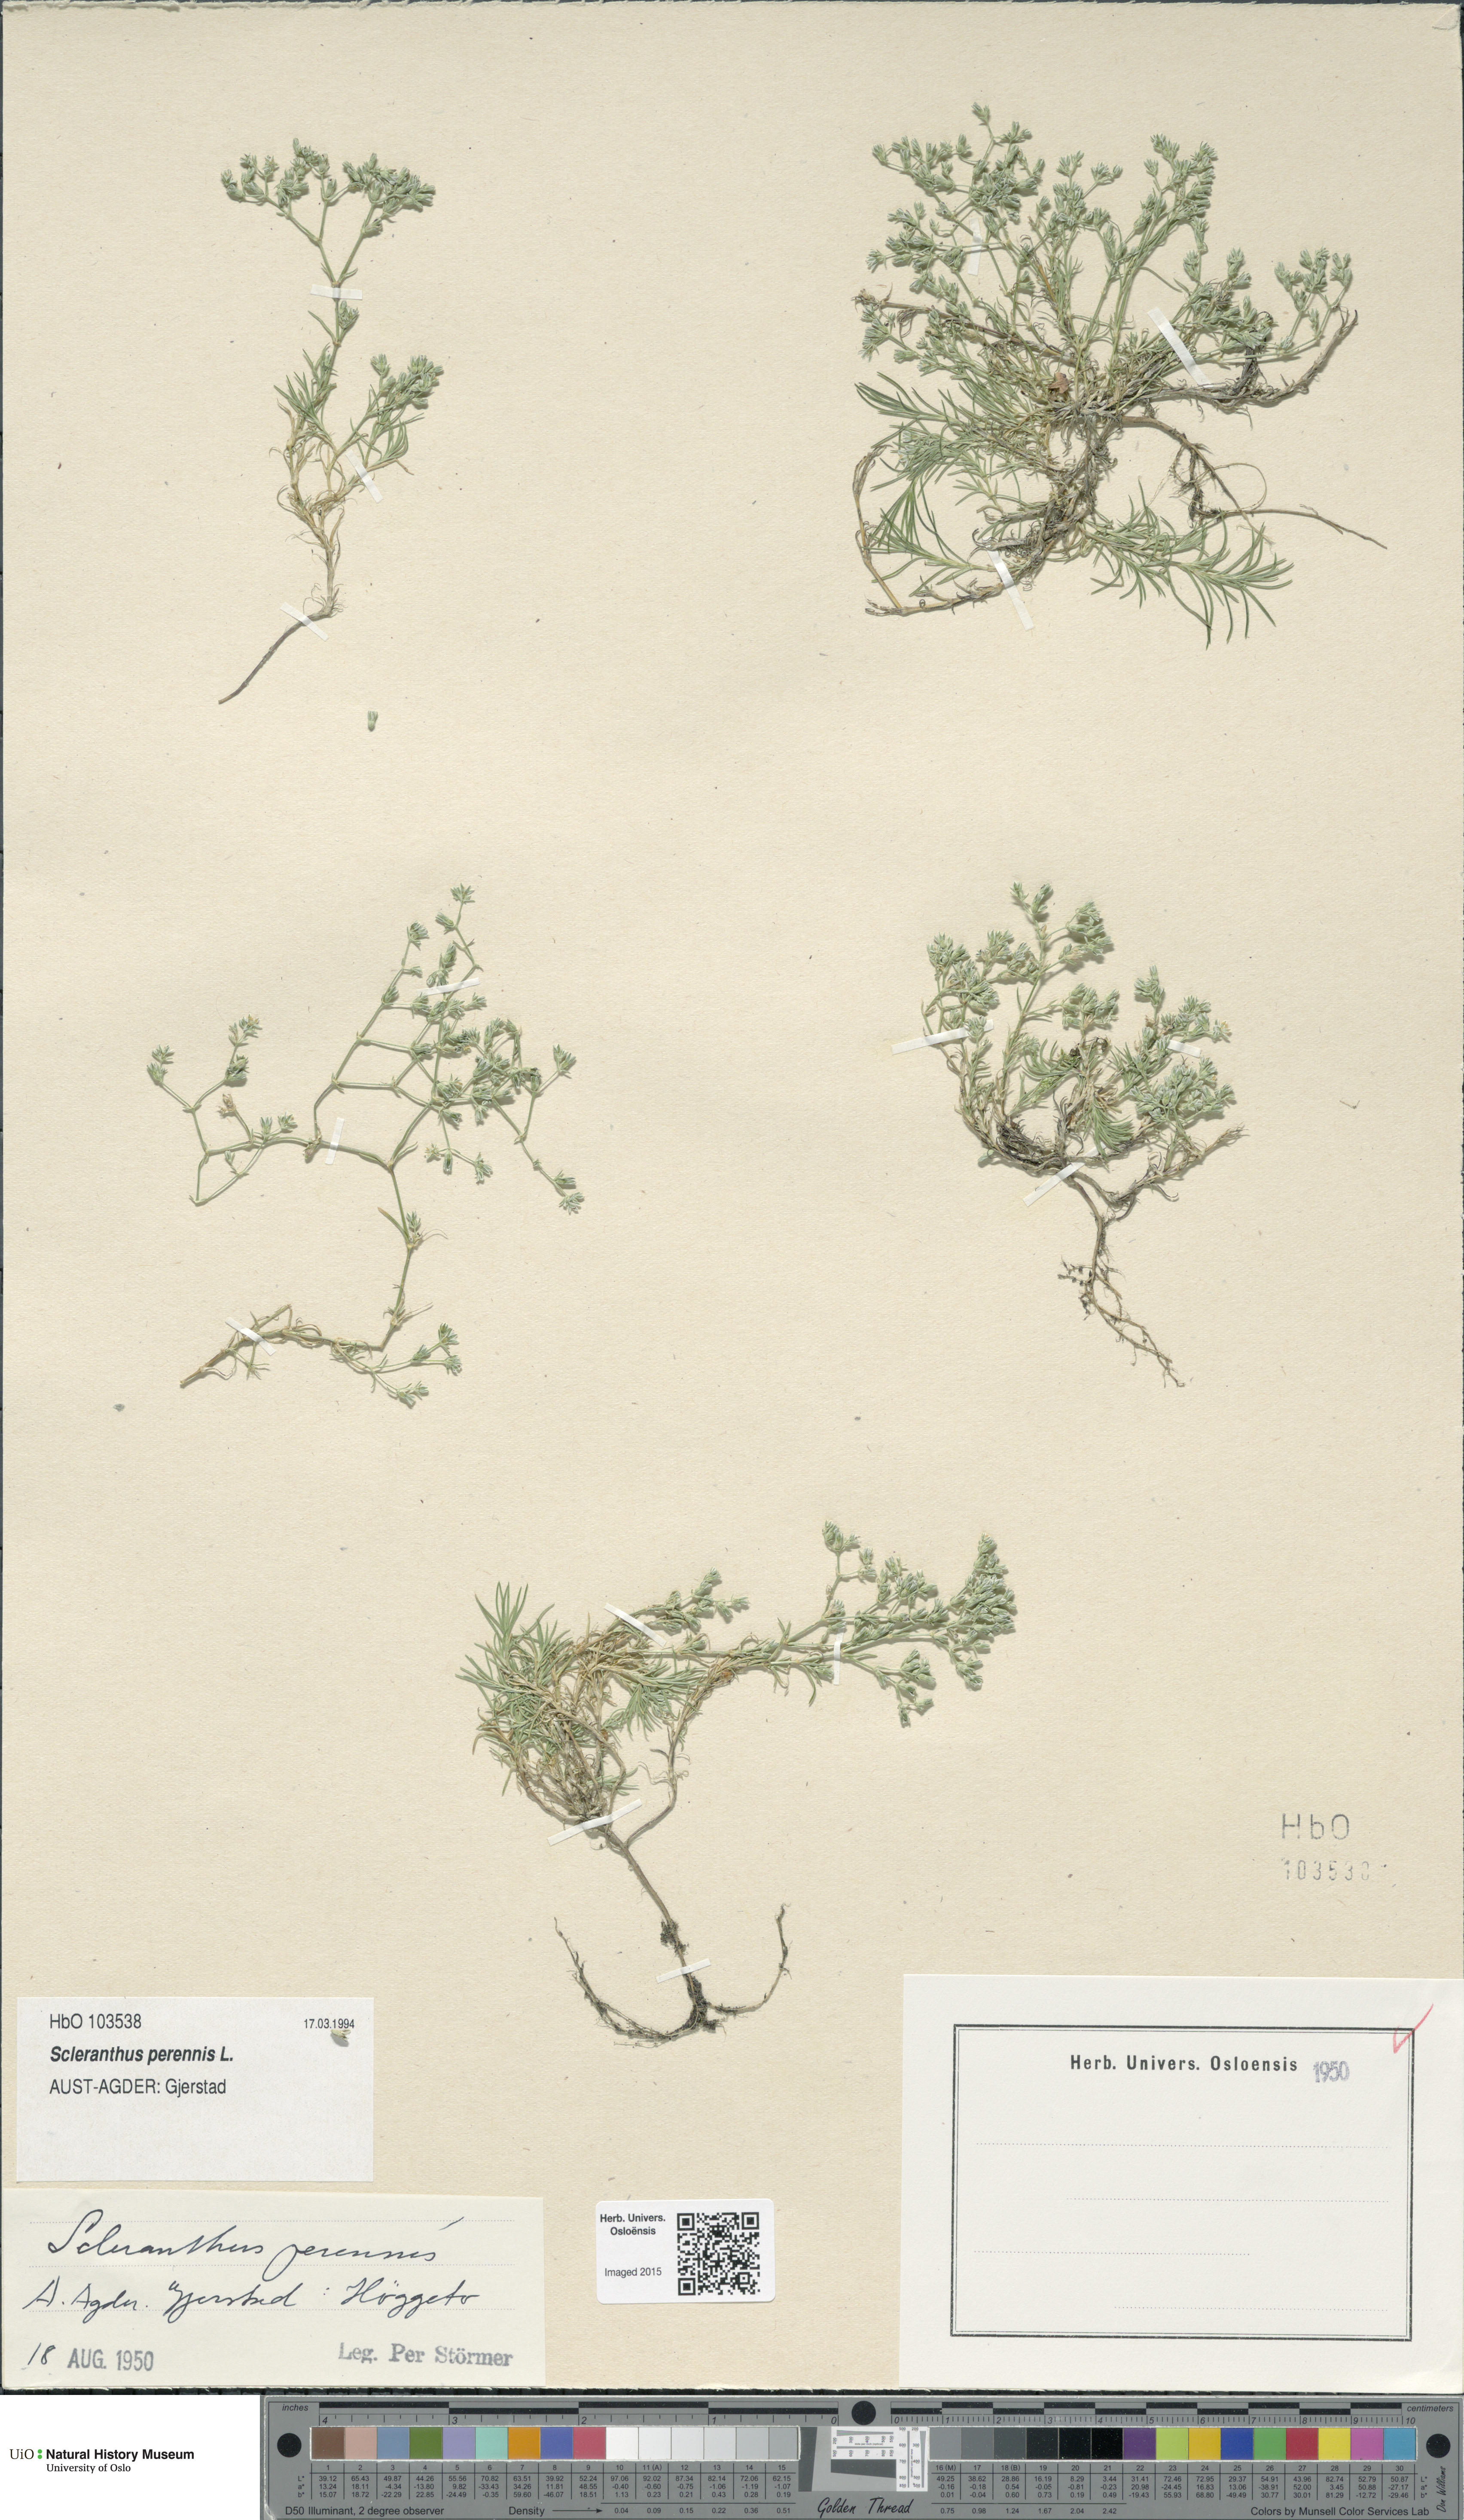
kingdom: Plantae
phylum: Tracheophyta
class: Magnoliopsida
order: Caryophyllales
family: Caryophyllaceae
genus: Scleranthus
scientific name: Scleranthus perennis
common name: Perennial knawel
